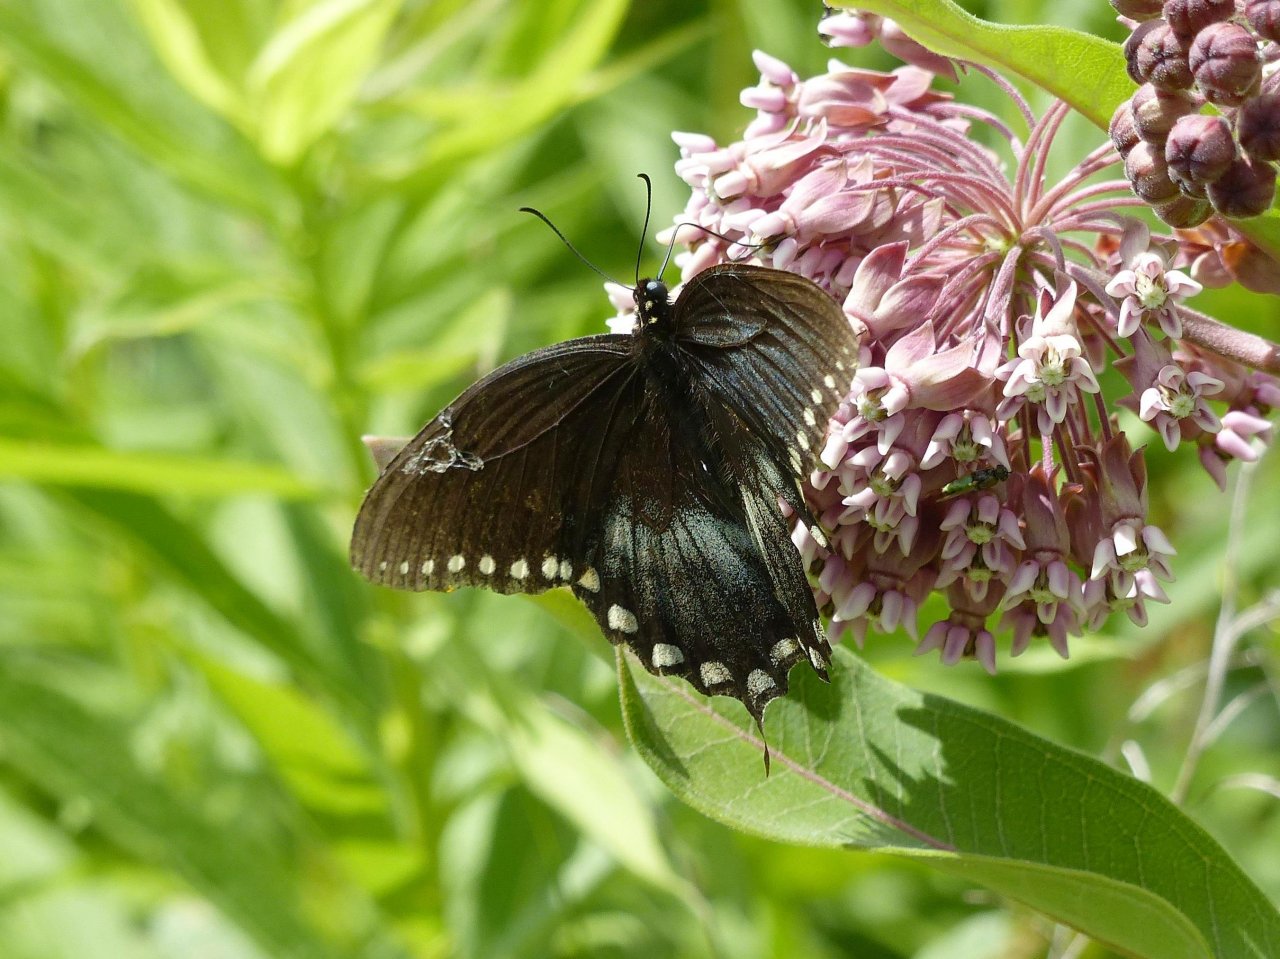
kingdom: Animalia
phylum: Arthropoda
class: Insecta
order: Lepidoptera
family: Papilionidae
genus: Pterourus
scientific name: Pterourus troilus
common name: Spicebush Swallowtail
